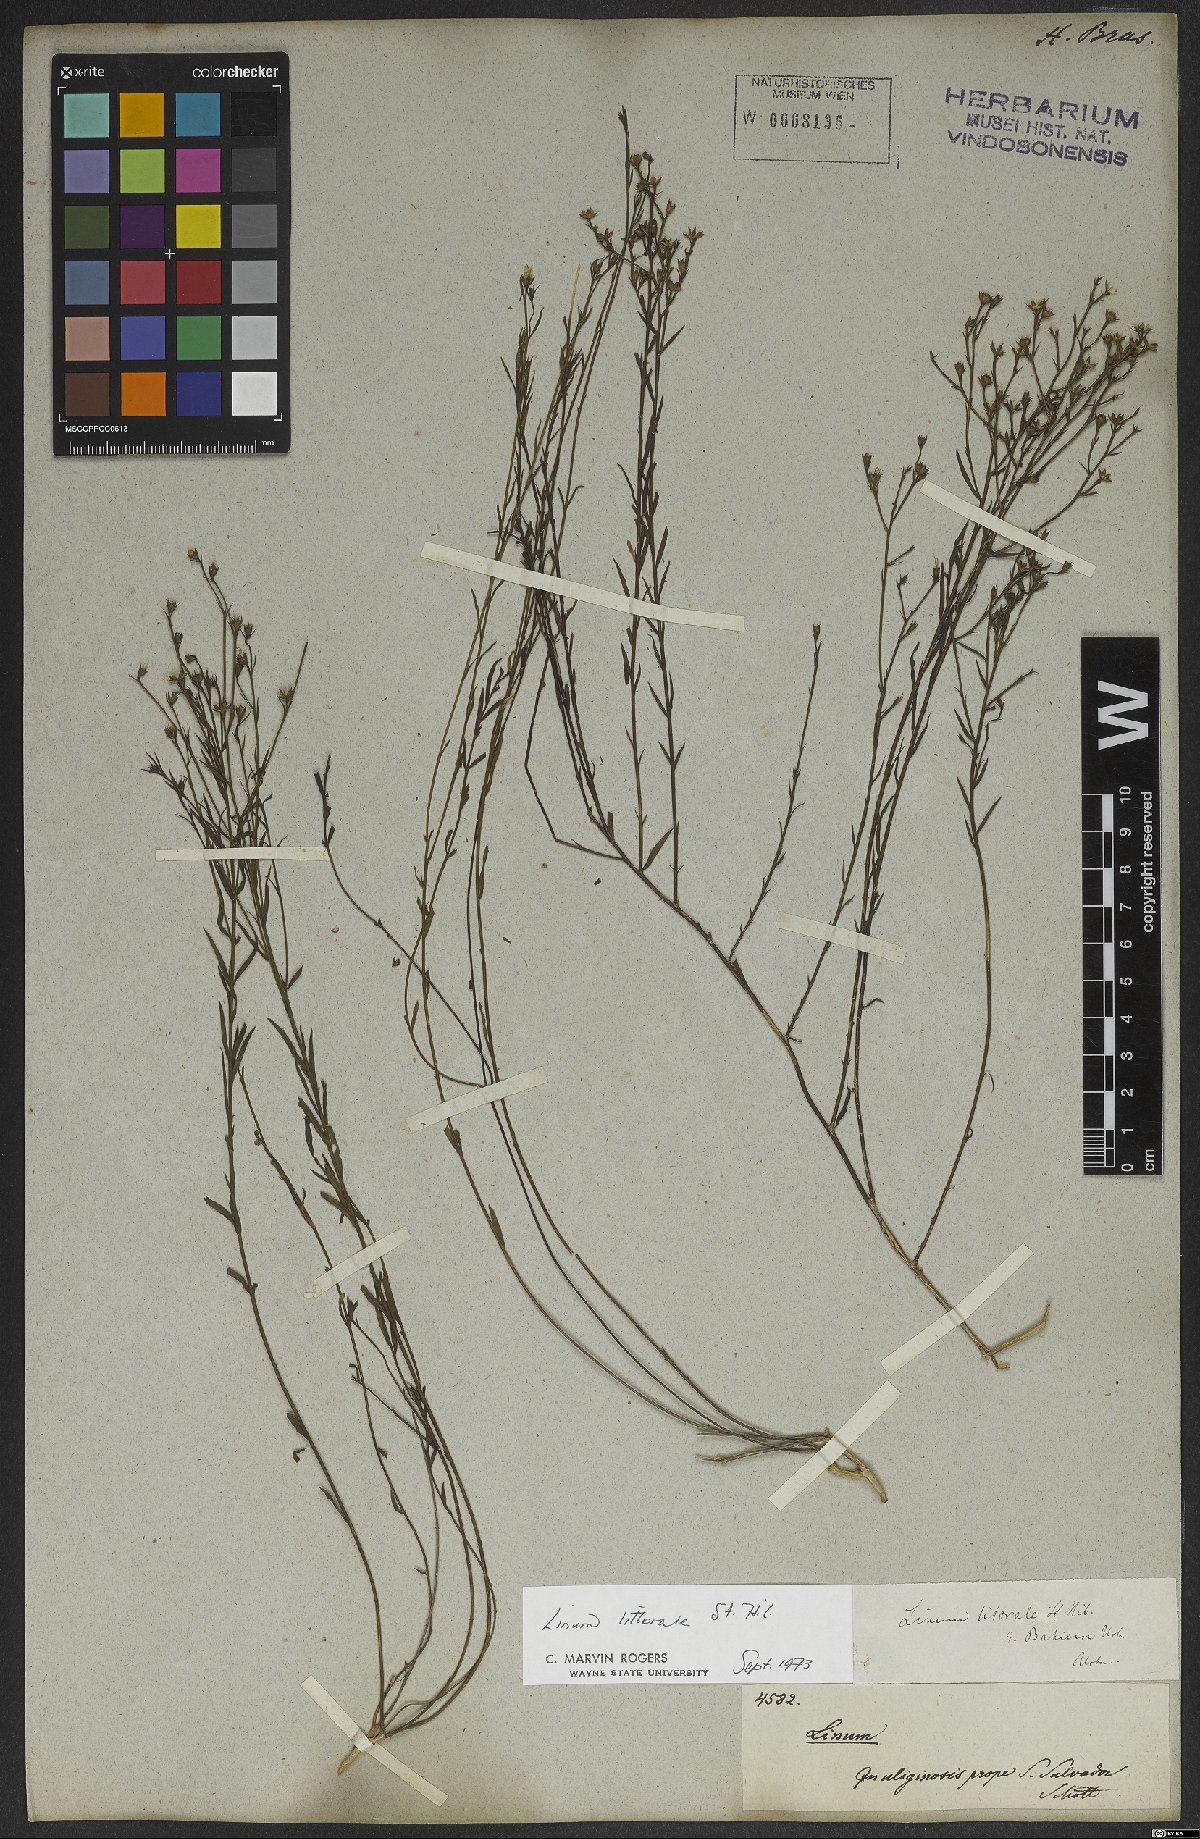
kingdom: Plantae
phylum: Tracheophyta
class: Magnoliopsida
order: Malpighiales
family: Linaceae
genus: Linum
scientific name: Linum littorale
